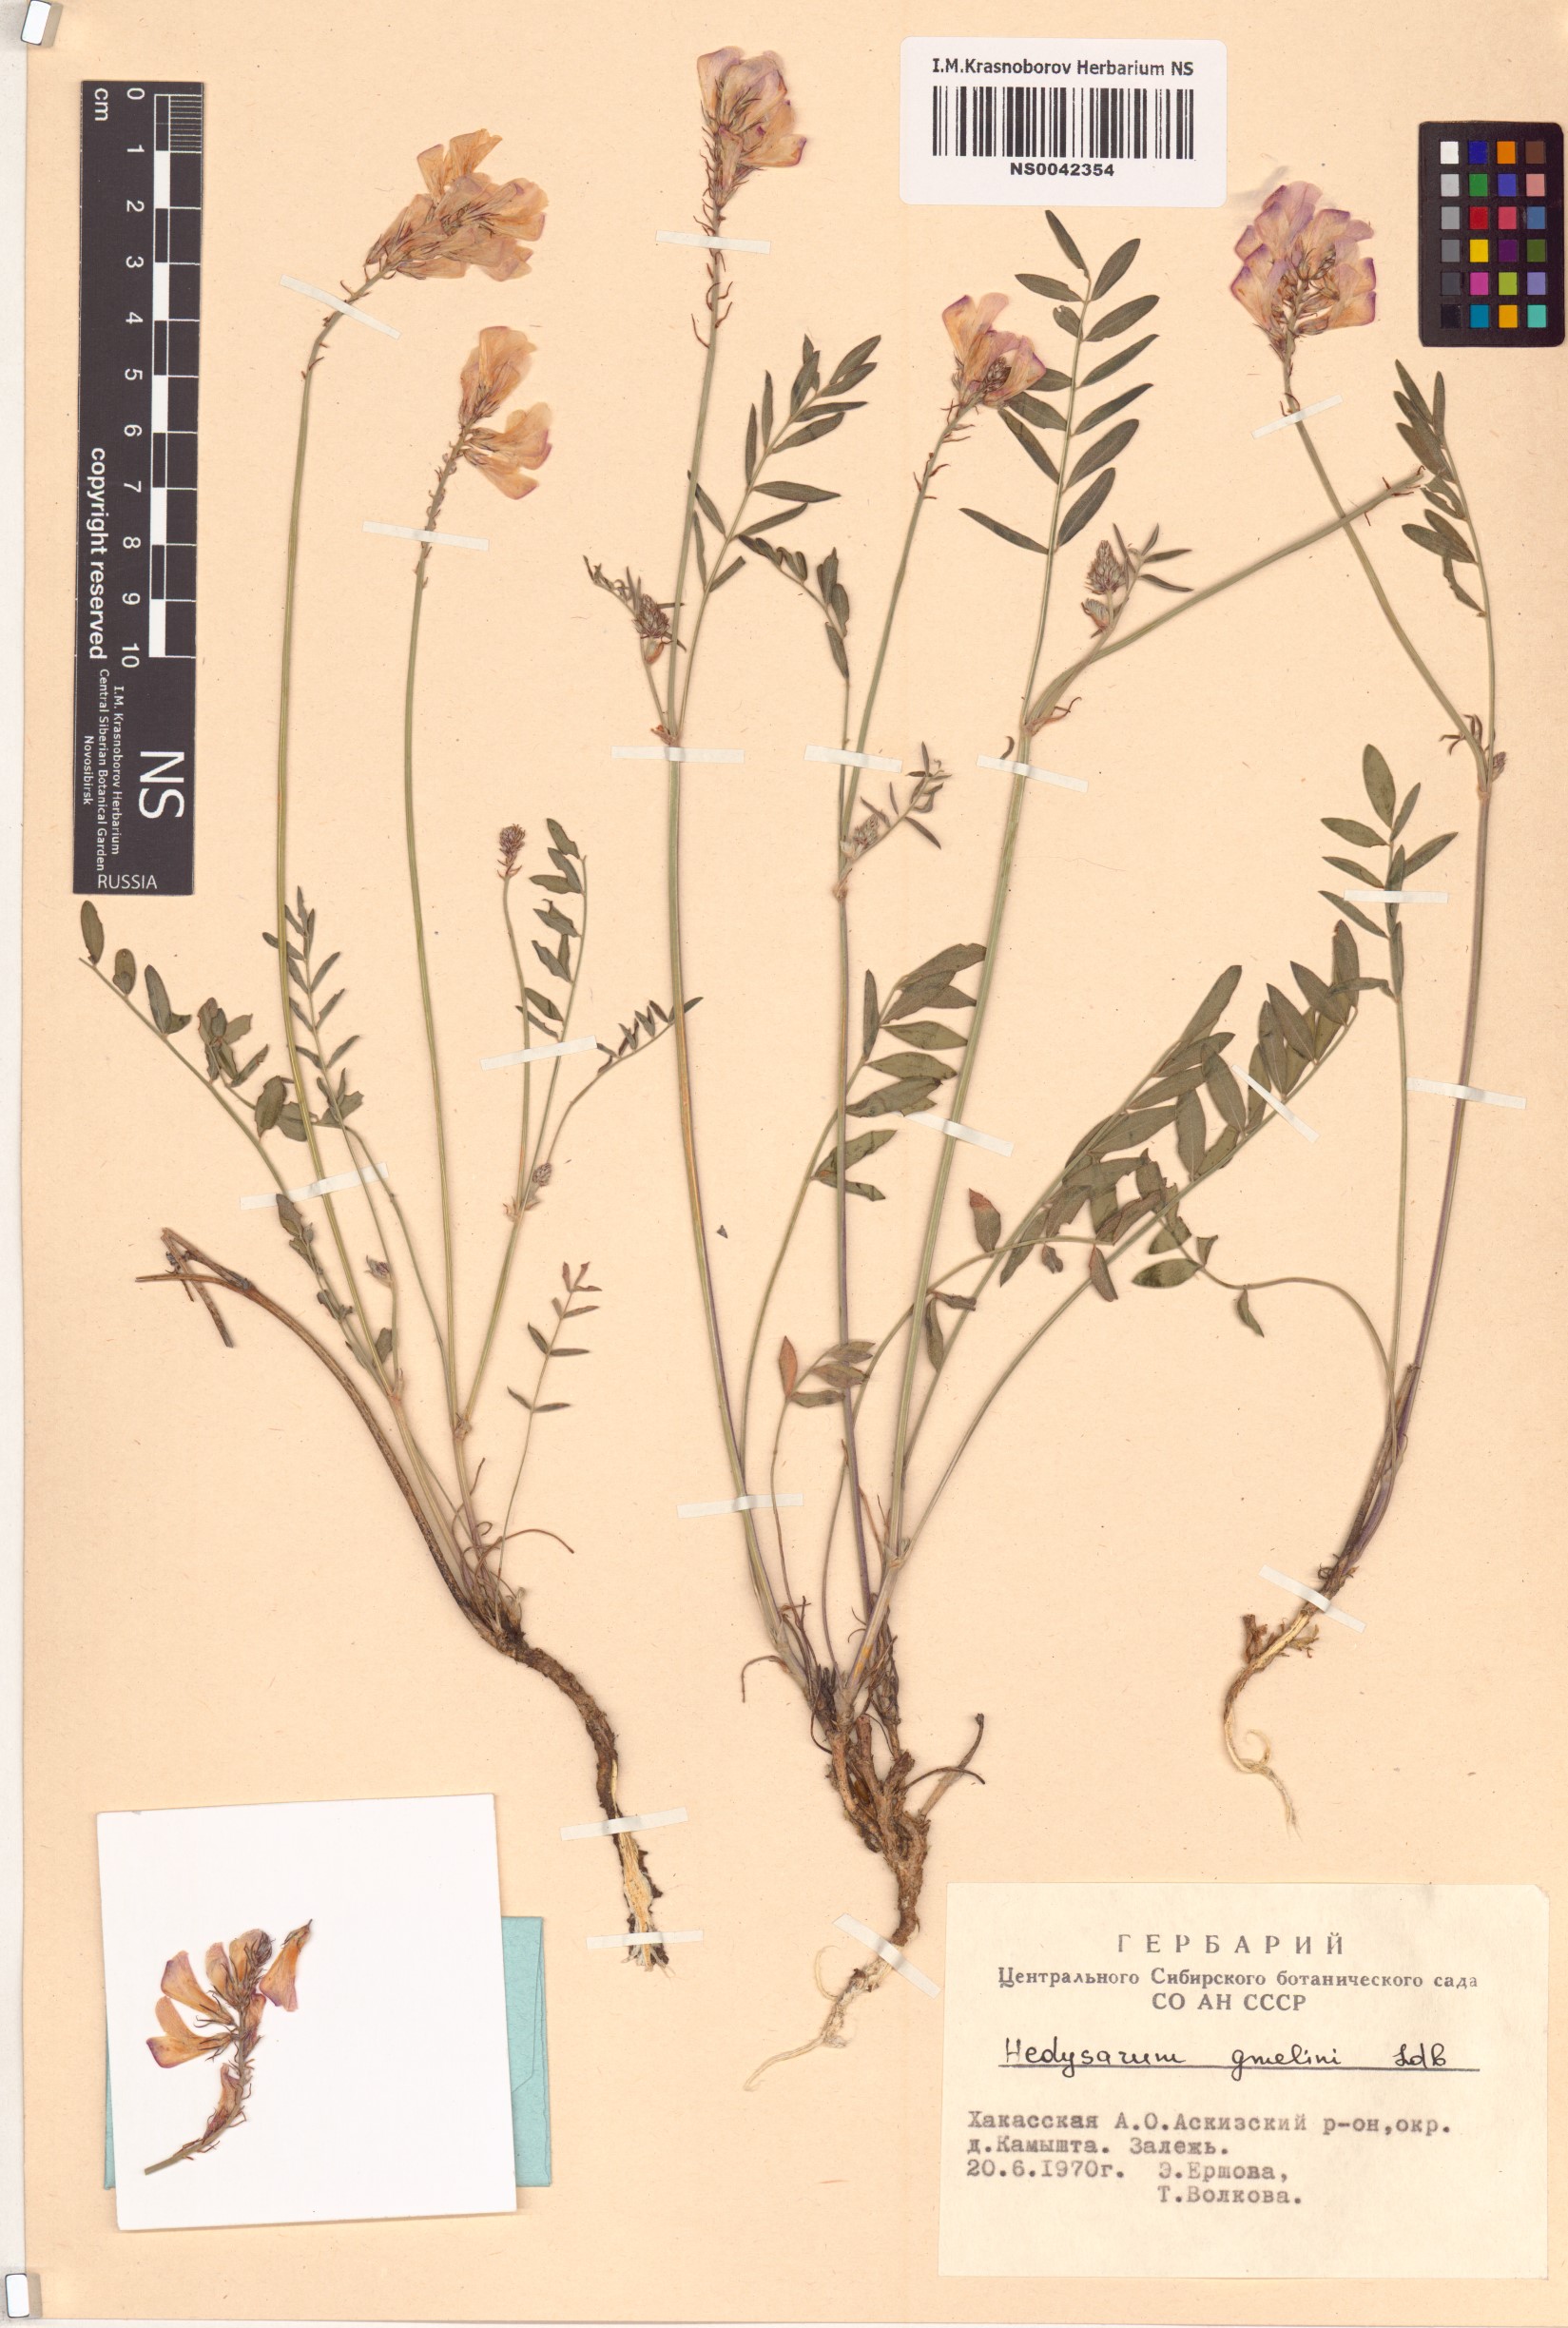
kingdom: Plantae
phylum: Tracheophyta
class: Magnoliopsida
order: Fabales
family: Fabaceae
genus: Hedysarum
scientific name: Hedysarum gmelinii
